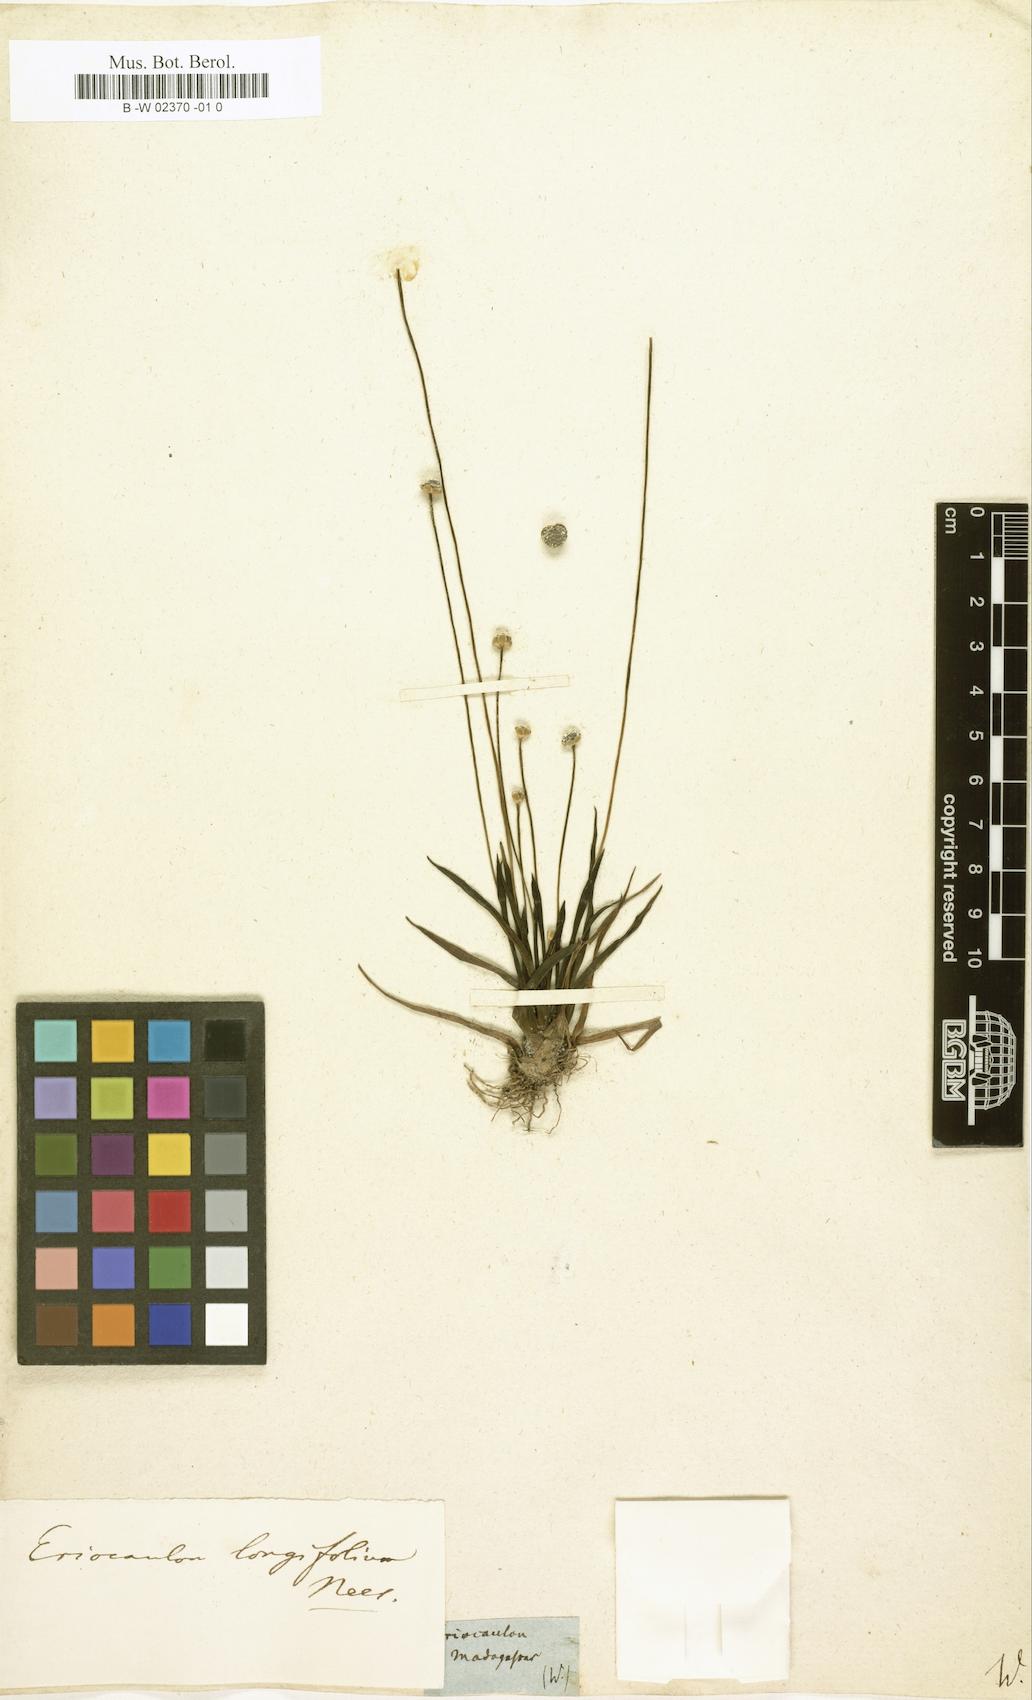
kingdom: Plantae
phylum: Tracheophyta
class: Liliopsida
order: Poales
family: Eriocaulaceae
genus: Eriocaulon
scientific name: Eriocaulon sulanum
